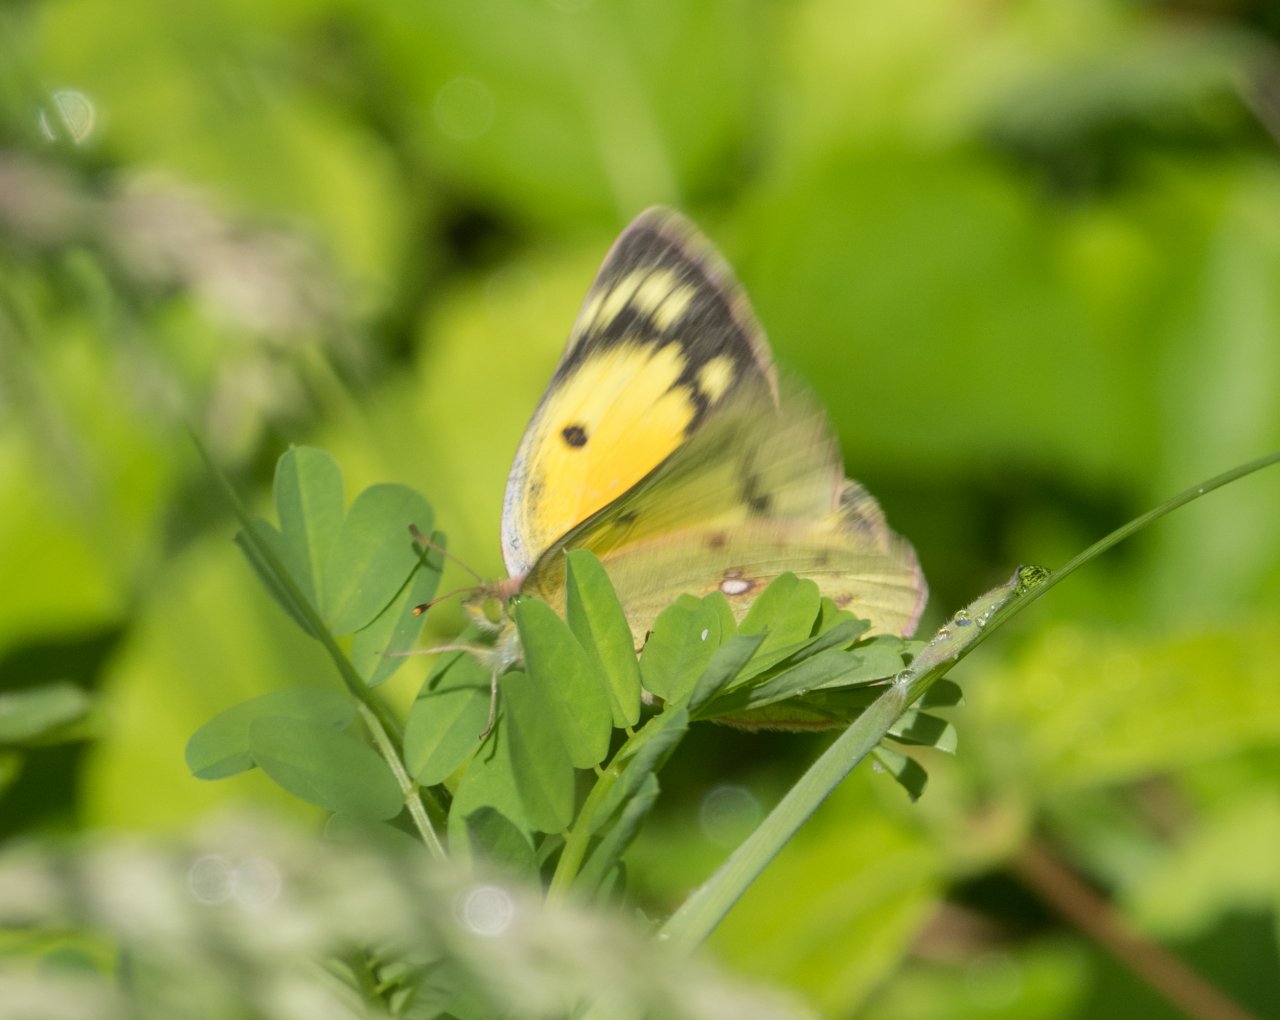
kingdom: Animalia
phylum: Arthropoda
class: Insecta
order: Lepidoptera
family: Pieridae
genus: Colias
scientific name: Colias eurytheme
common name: Orange Sulphur
